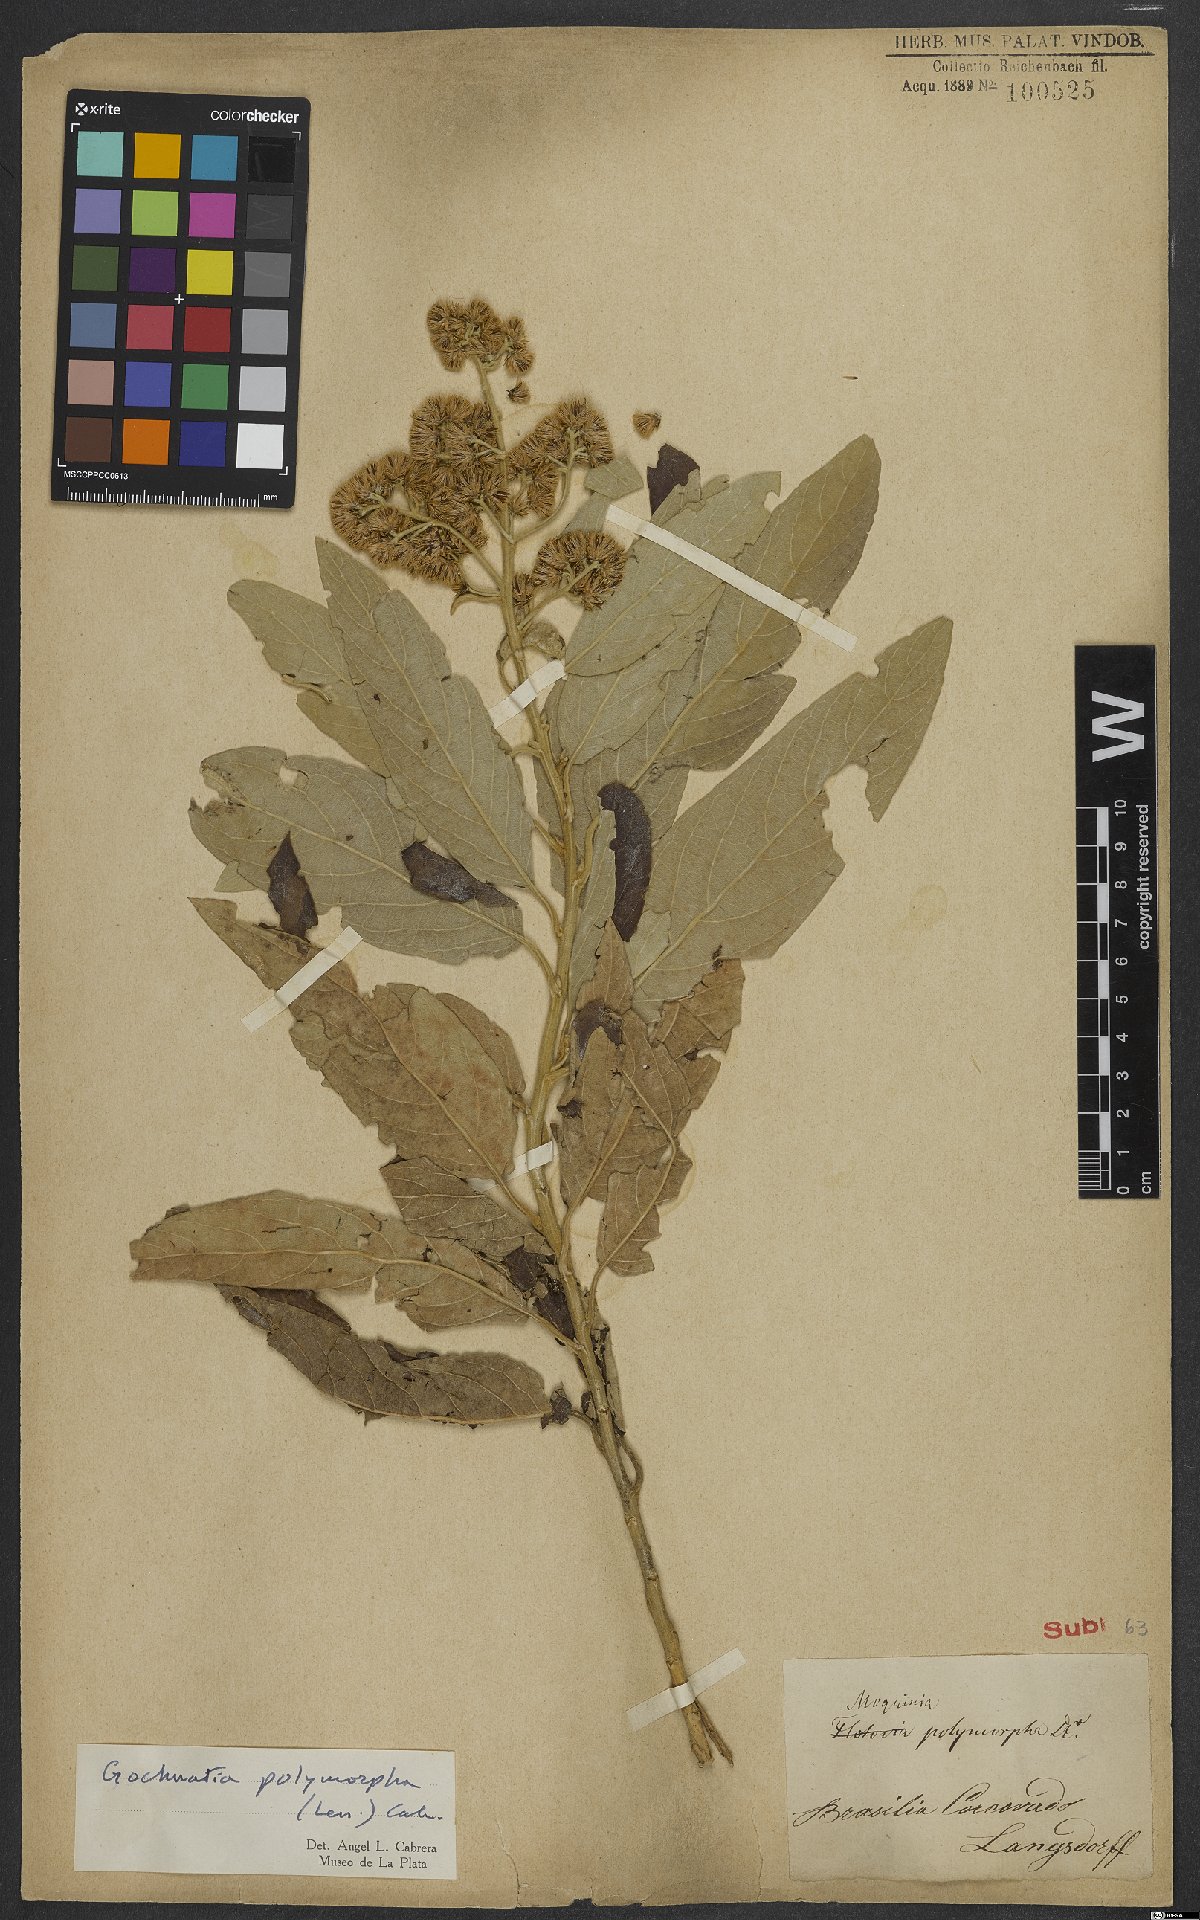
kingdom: Plantae
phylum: Tracheophyta
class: Magnoliopsida
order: Asterales
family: Asteraceae
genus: Moquiniastrum
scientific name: Moquiniastrum polymorphum
